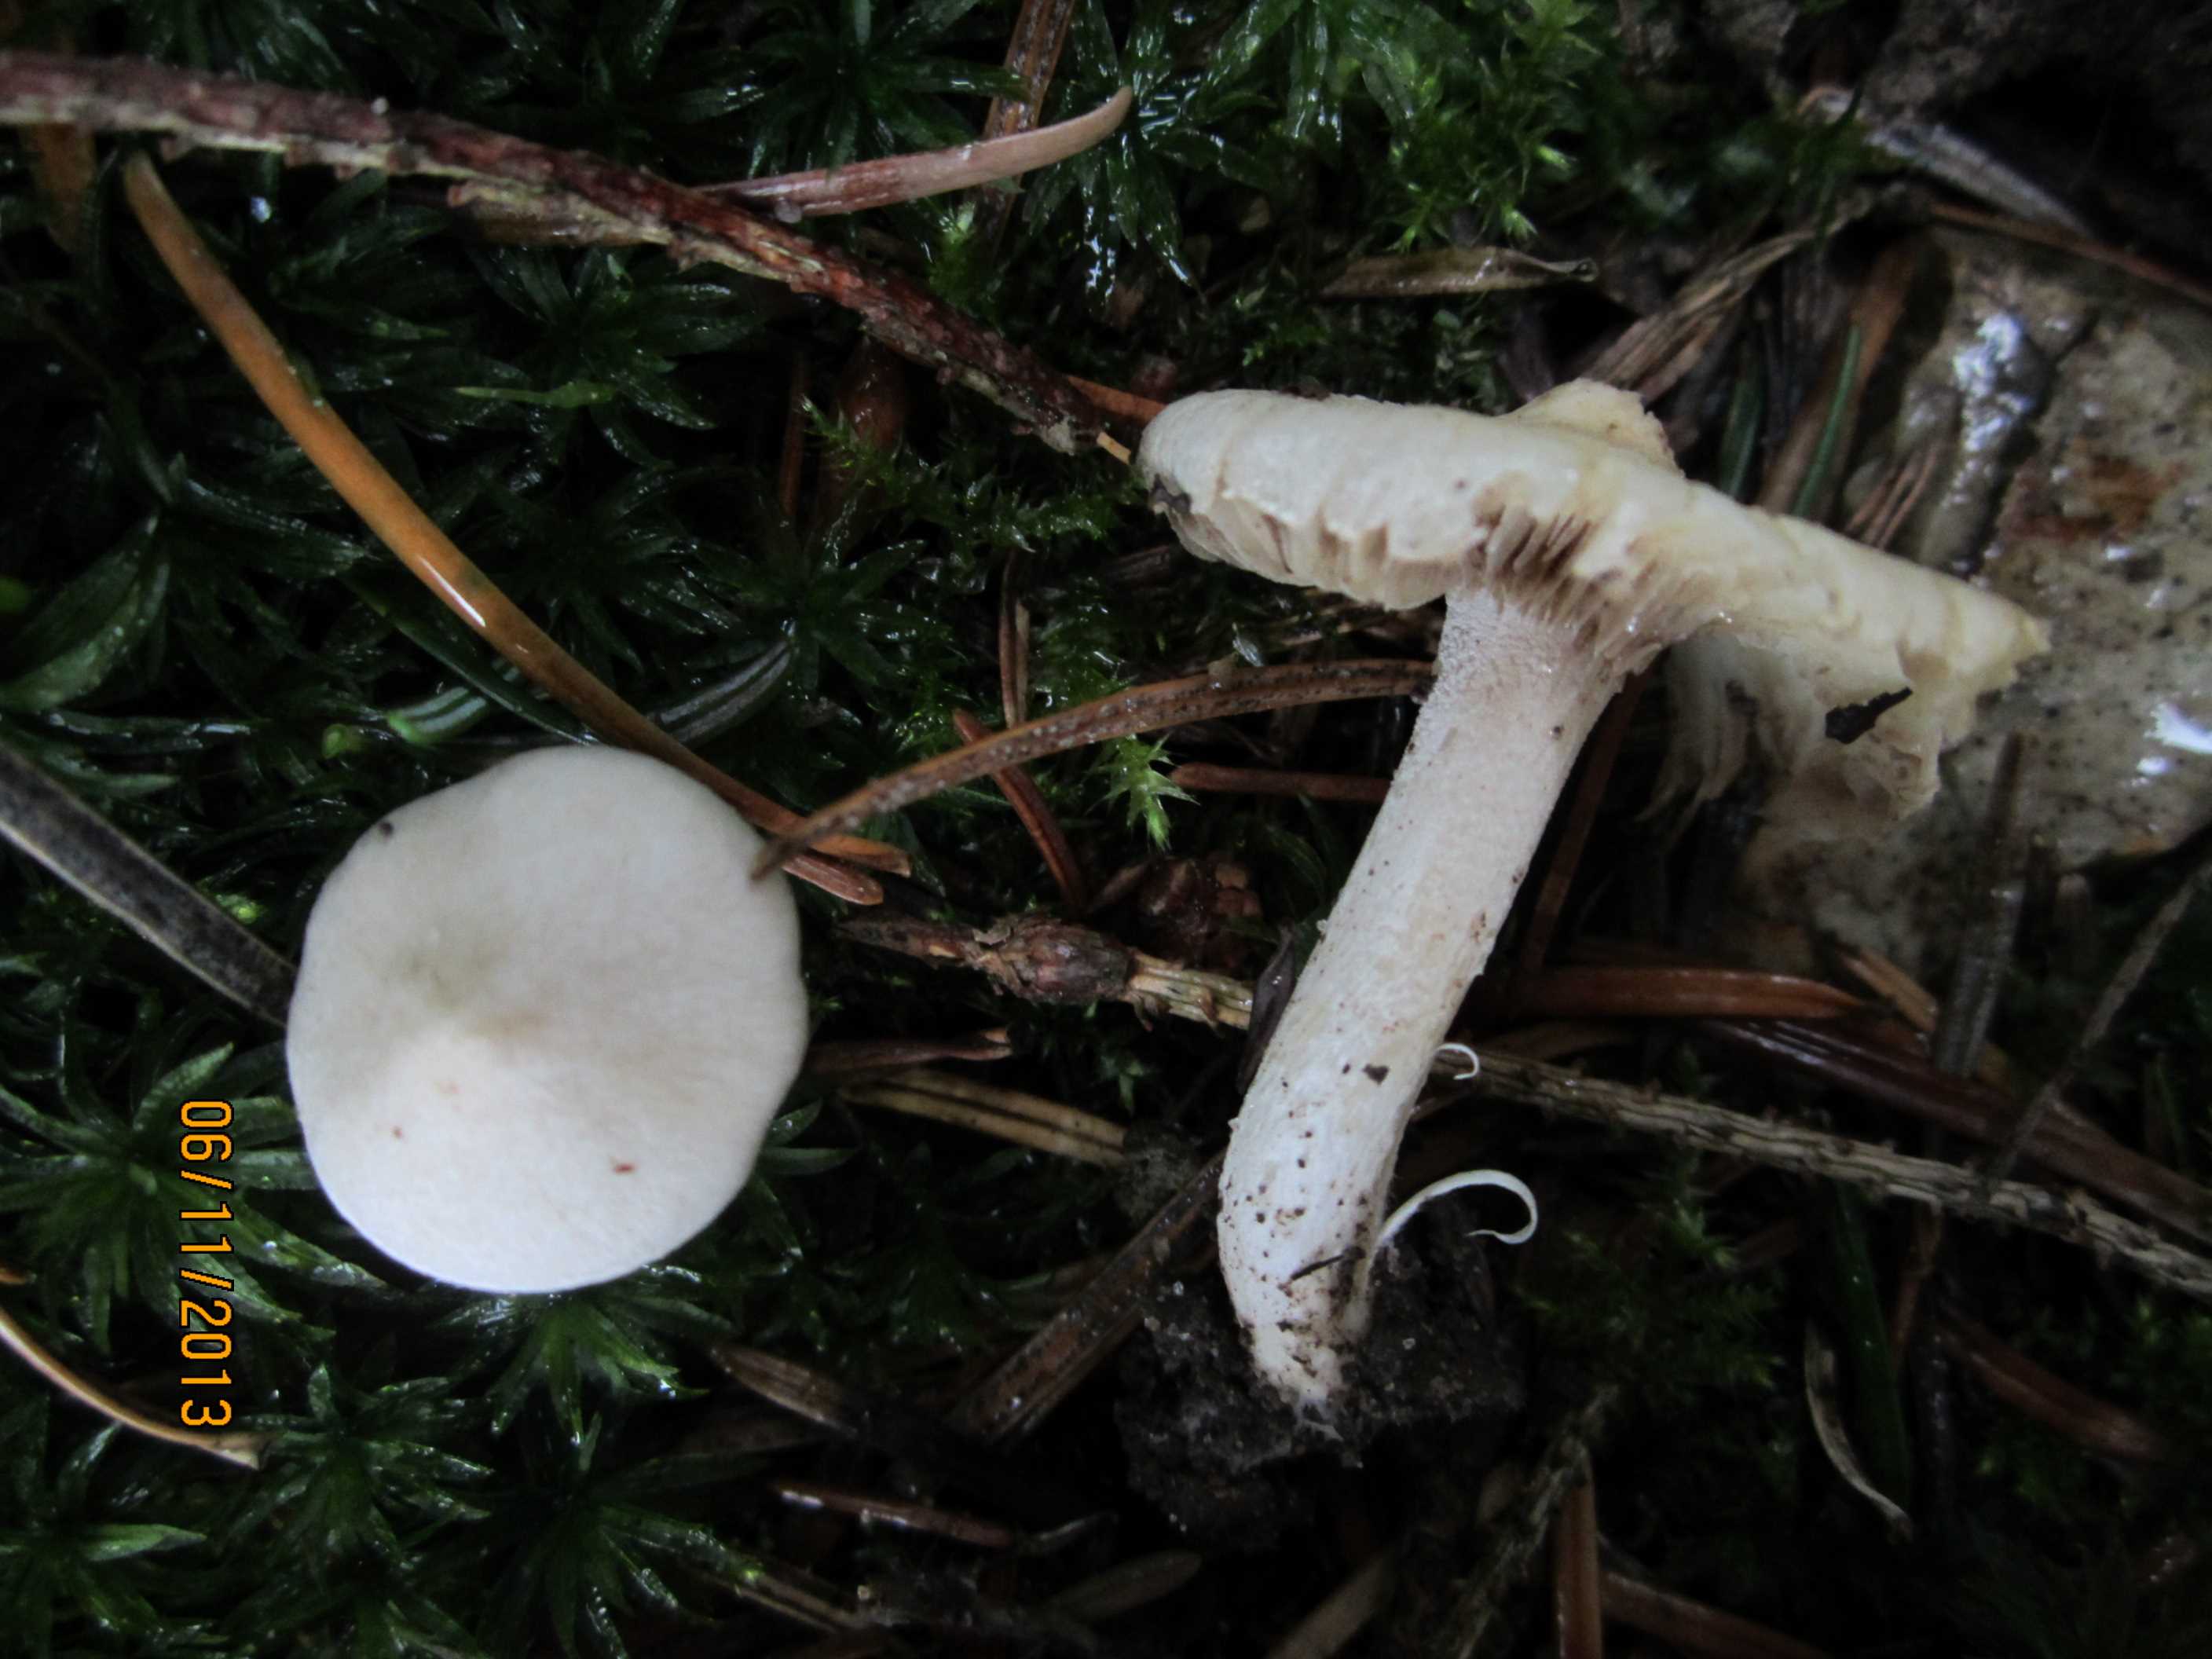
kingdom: Fungi
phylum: Basidiomycota
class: Agaricomycetes
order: Agaricales
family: Inocybaceae
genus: Inocybe
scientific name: Inocybe
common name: almindelig trævlhat
